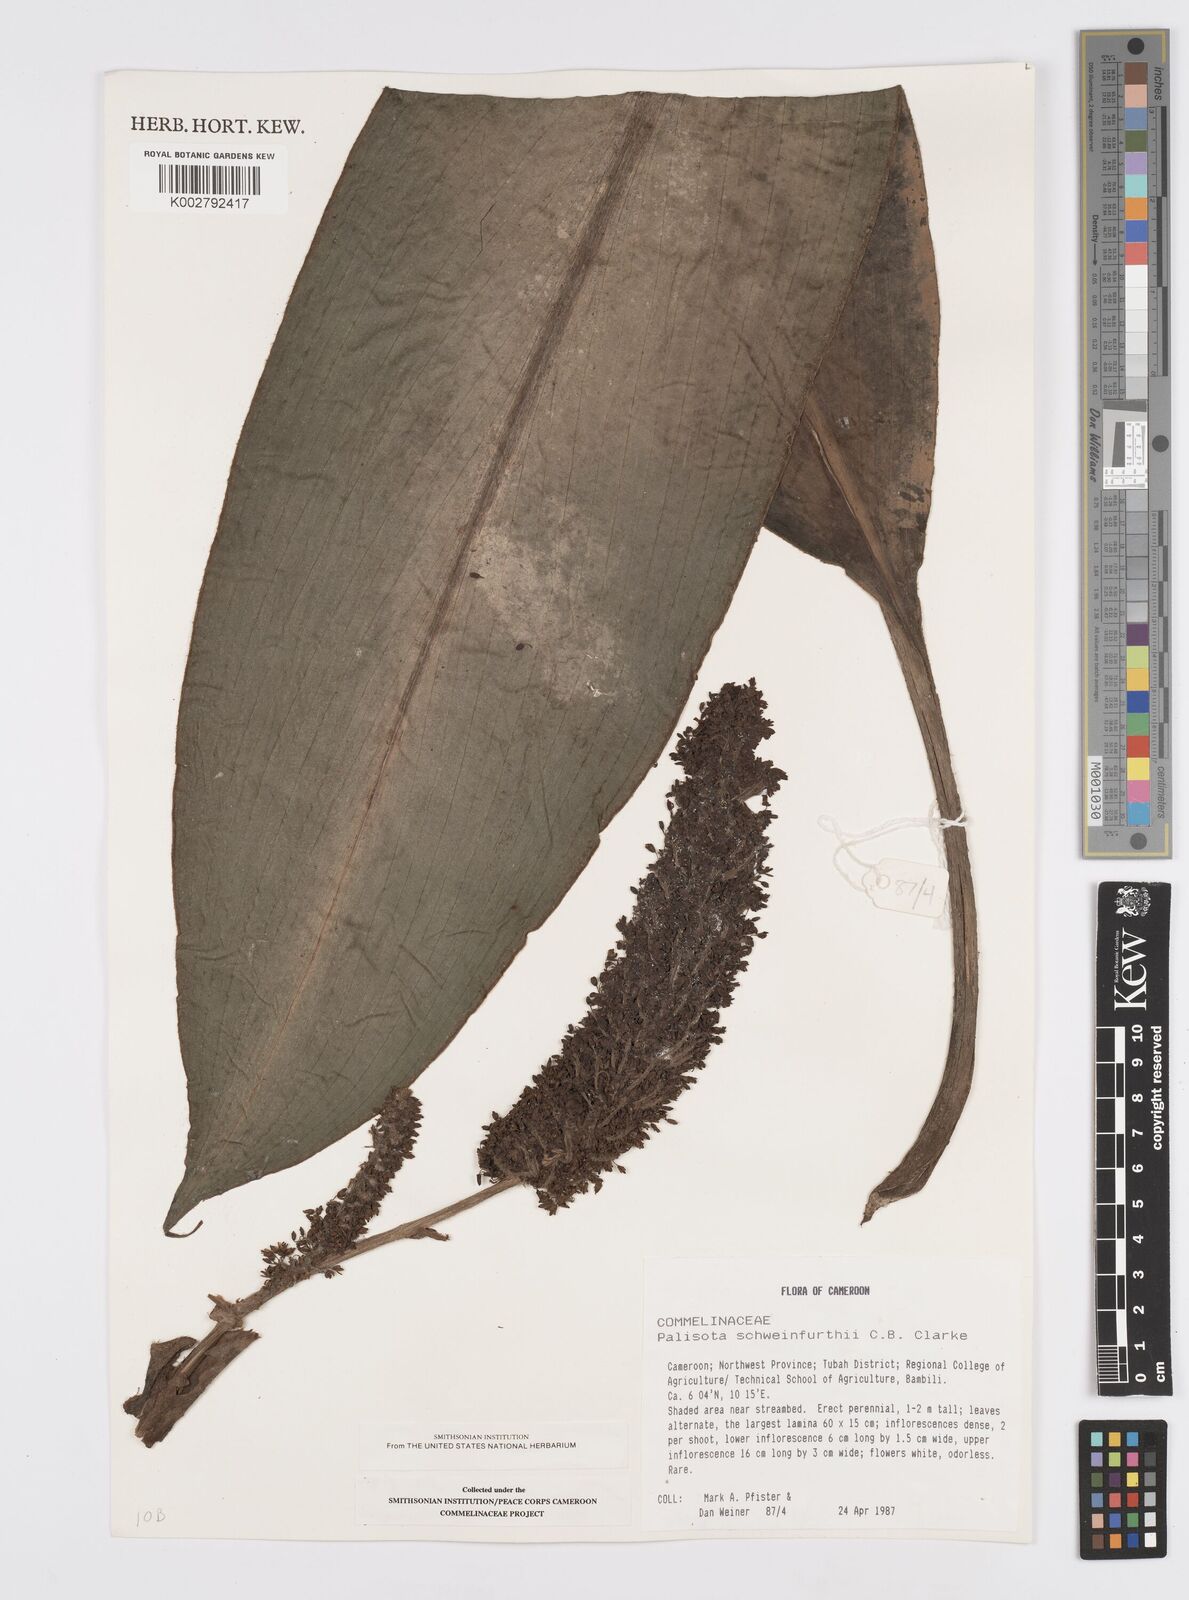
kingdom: Plantae
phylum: Tracheophyta
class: Liliopsida
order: Commelinales
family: Commelinaceae
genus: Palisota
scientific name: Palisota schweinfurthii
